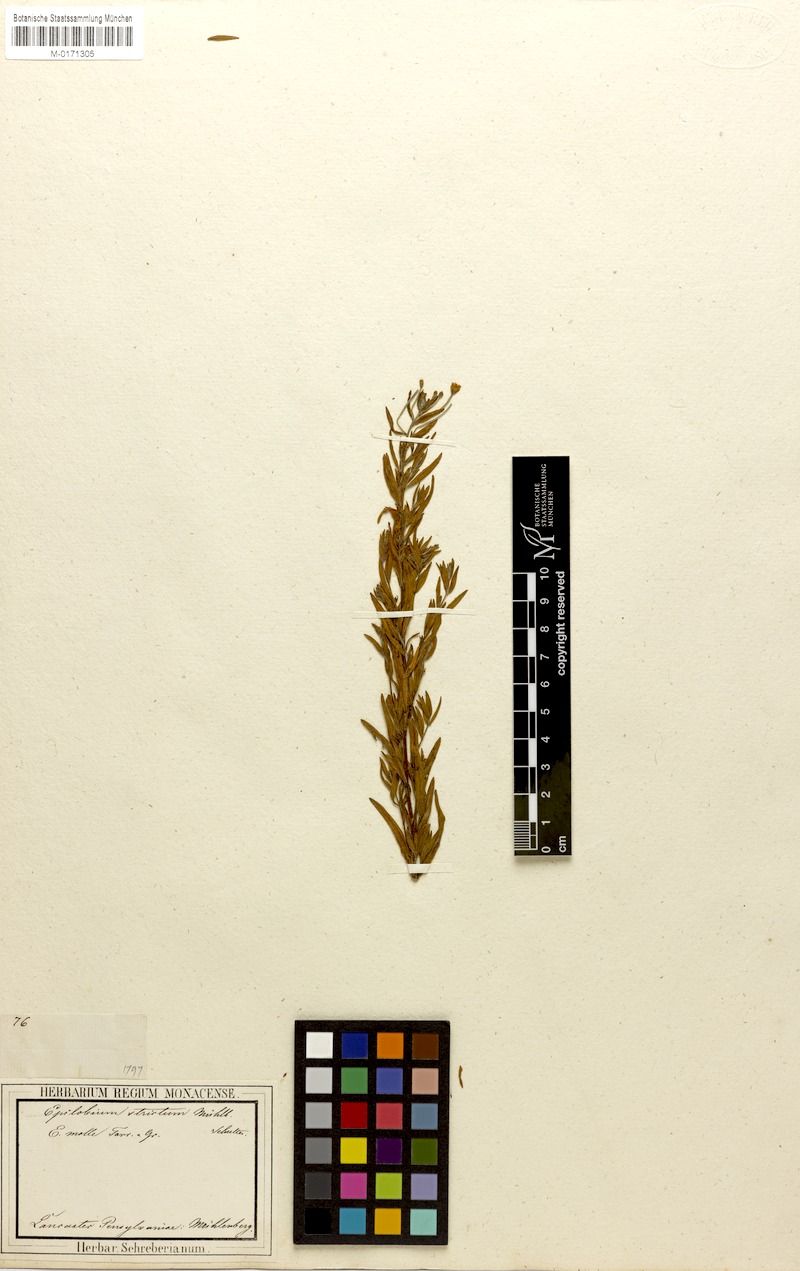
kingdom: Plantae
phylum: Tracheophyta
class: Magnoliopsida
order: Myrtales
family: Onagraceae
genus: Epilobium
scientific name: Epilobium densum
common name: Downy willowherb
